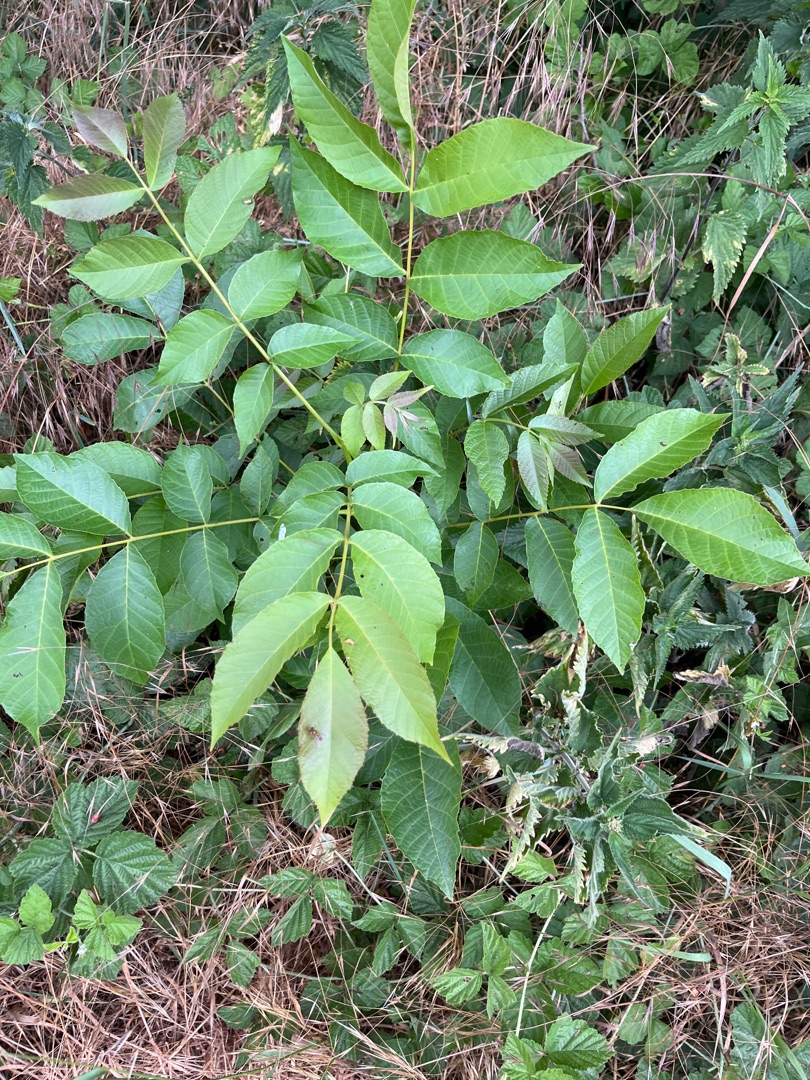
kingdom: Plantae
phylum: Tracheophyta
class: Magnoliopsida
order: Fagales
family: Juglandaceae
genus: Juglans
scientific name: Juglans regia
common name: Almindelig valnød
